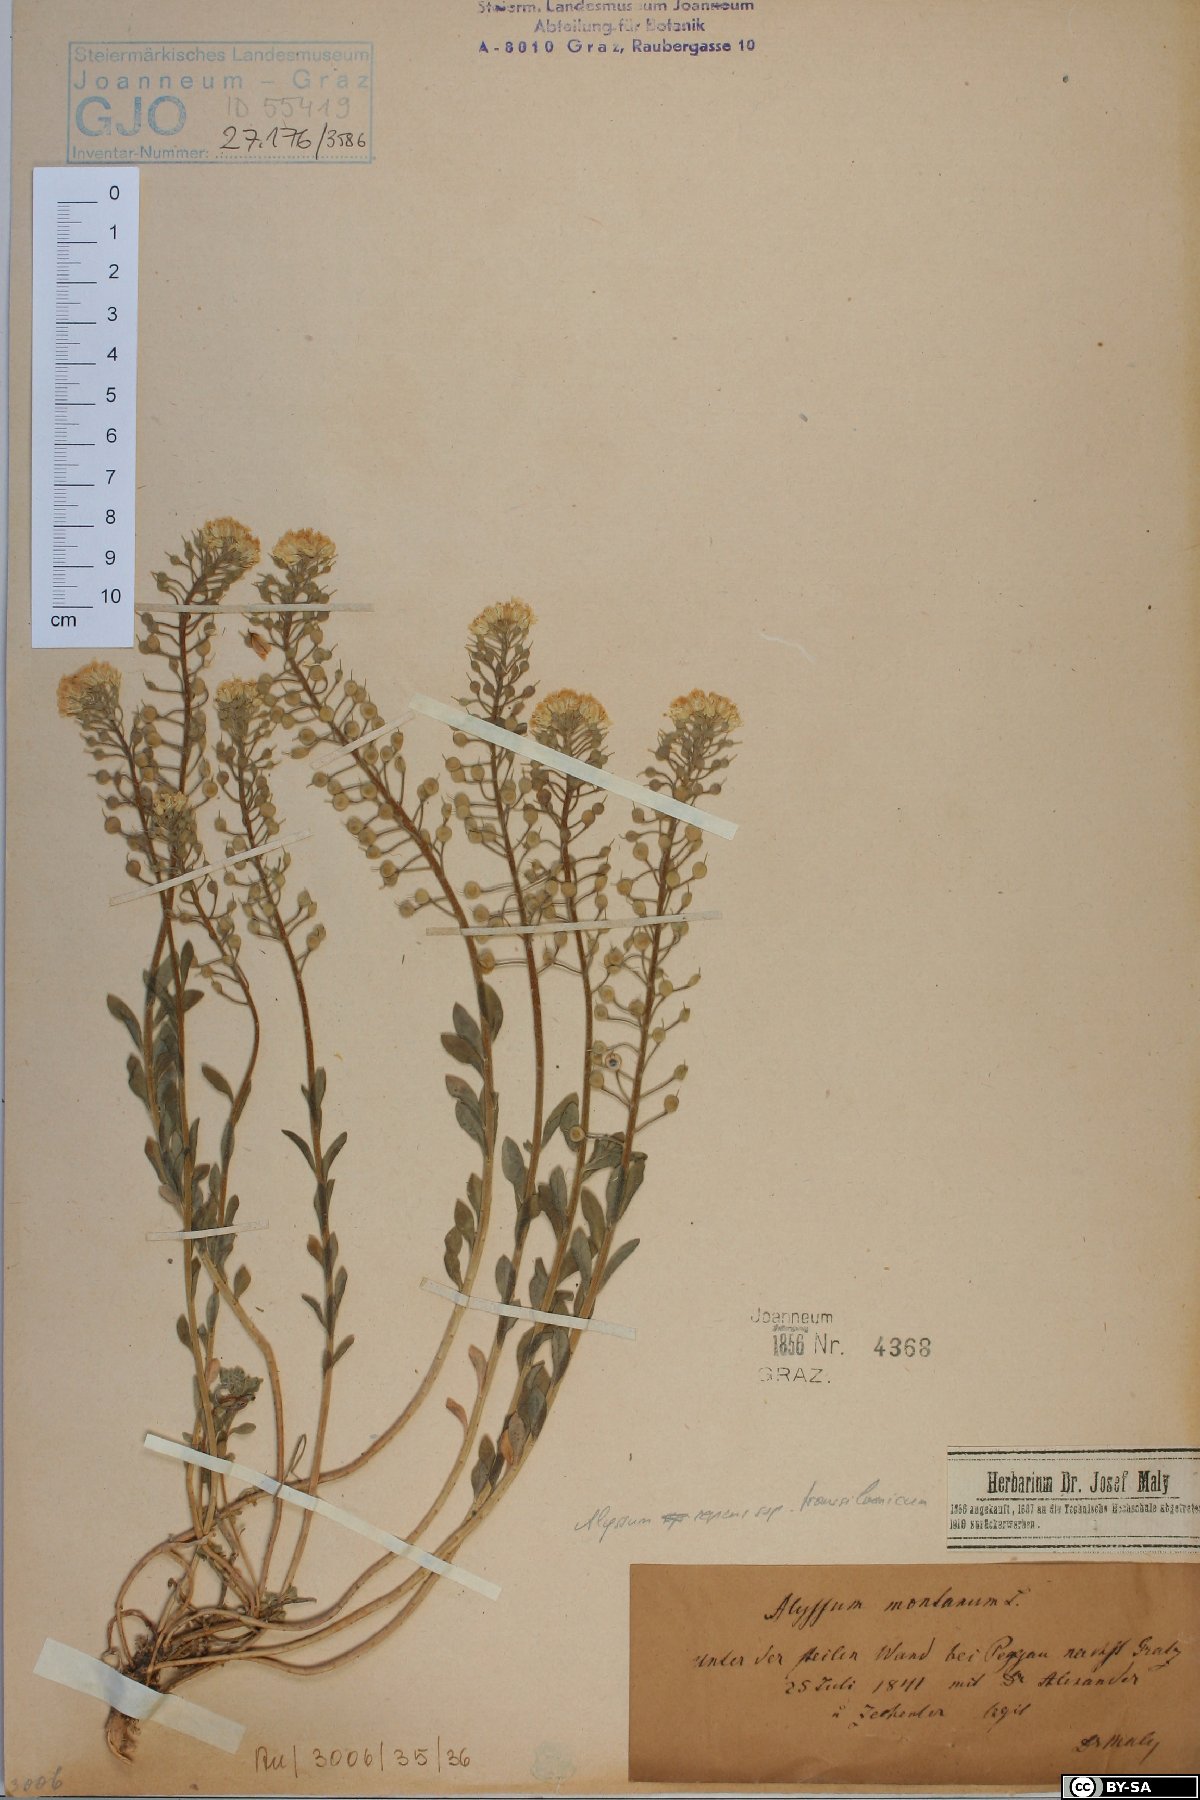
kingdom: Plantae
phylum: Tracheophyta
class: Magnoliopsida
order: Brassicales
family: Brassicaceae
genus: Alyssum
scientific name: Alyssum montanum
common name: Mountain alison
